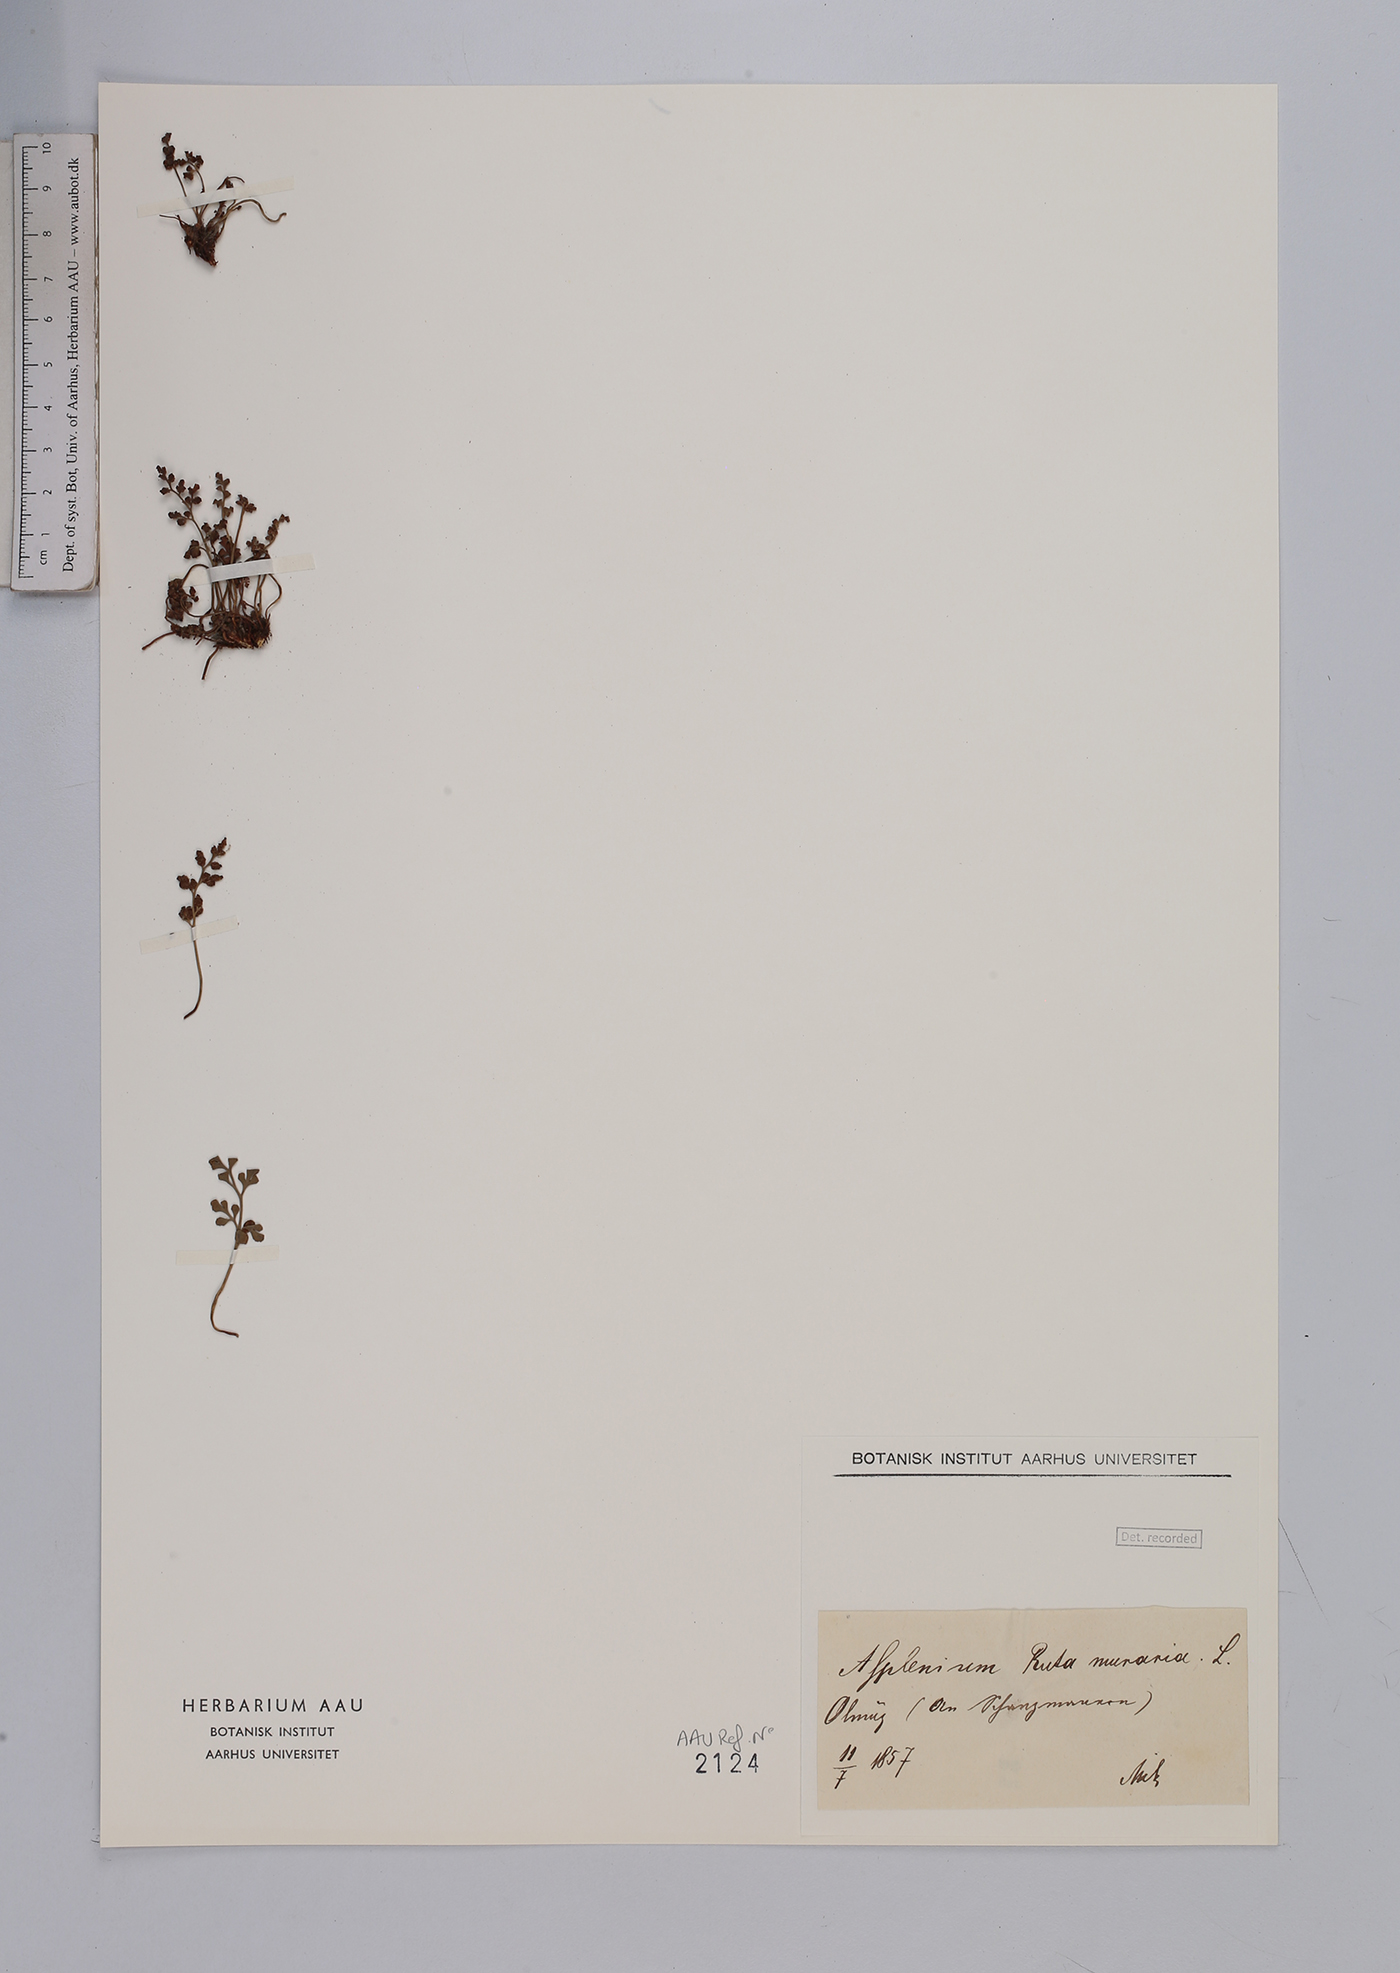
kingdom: Plantae
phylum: Tracheophyta
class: Polypodiopsida
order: Polypodiales
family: Aspleniaceae
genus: Asplenium
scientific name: Asplenium ruta-muraria
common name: Wall-rue
